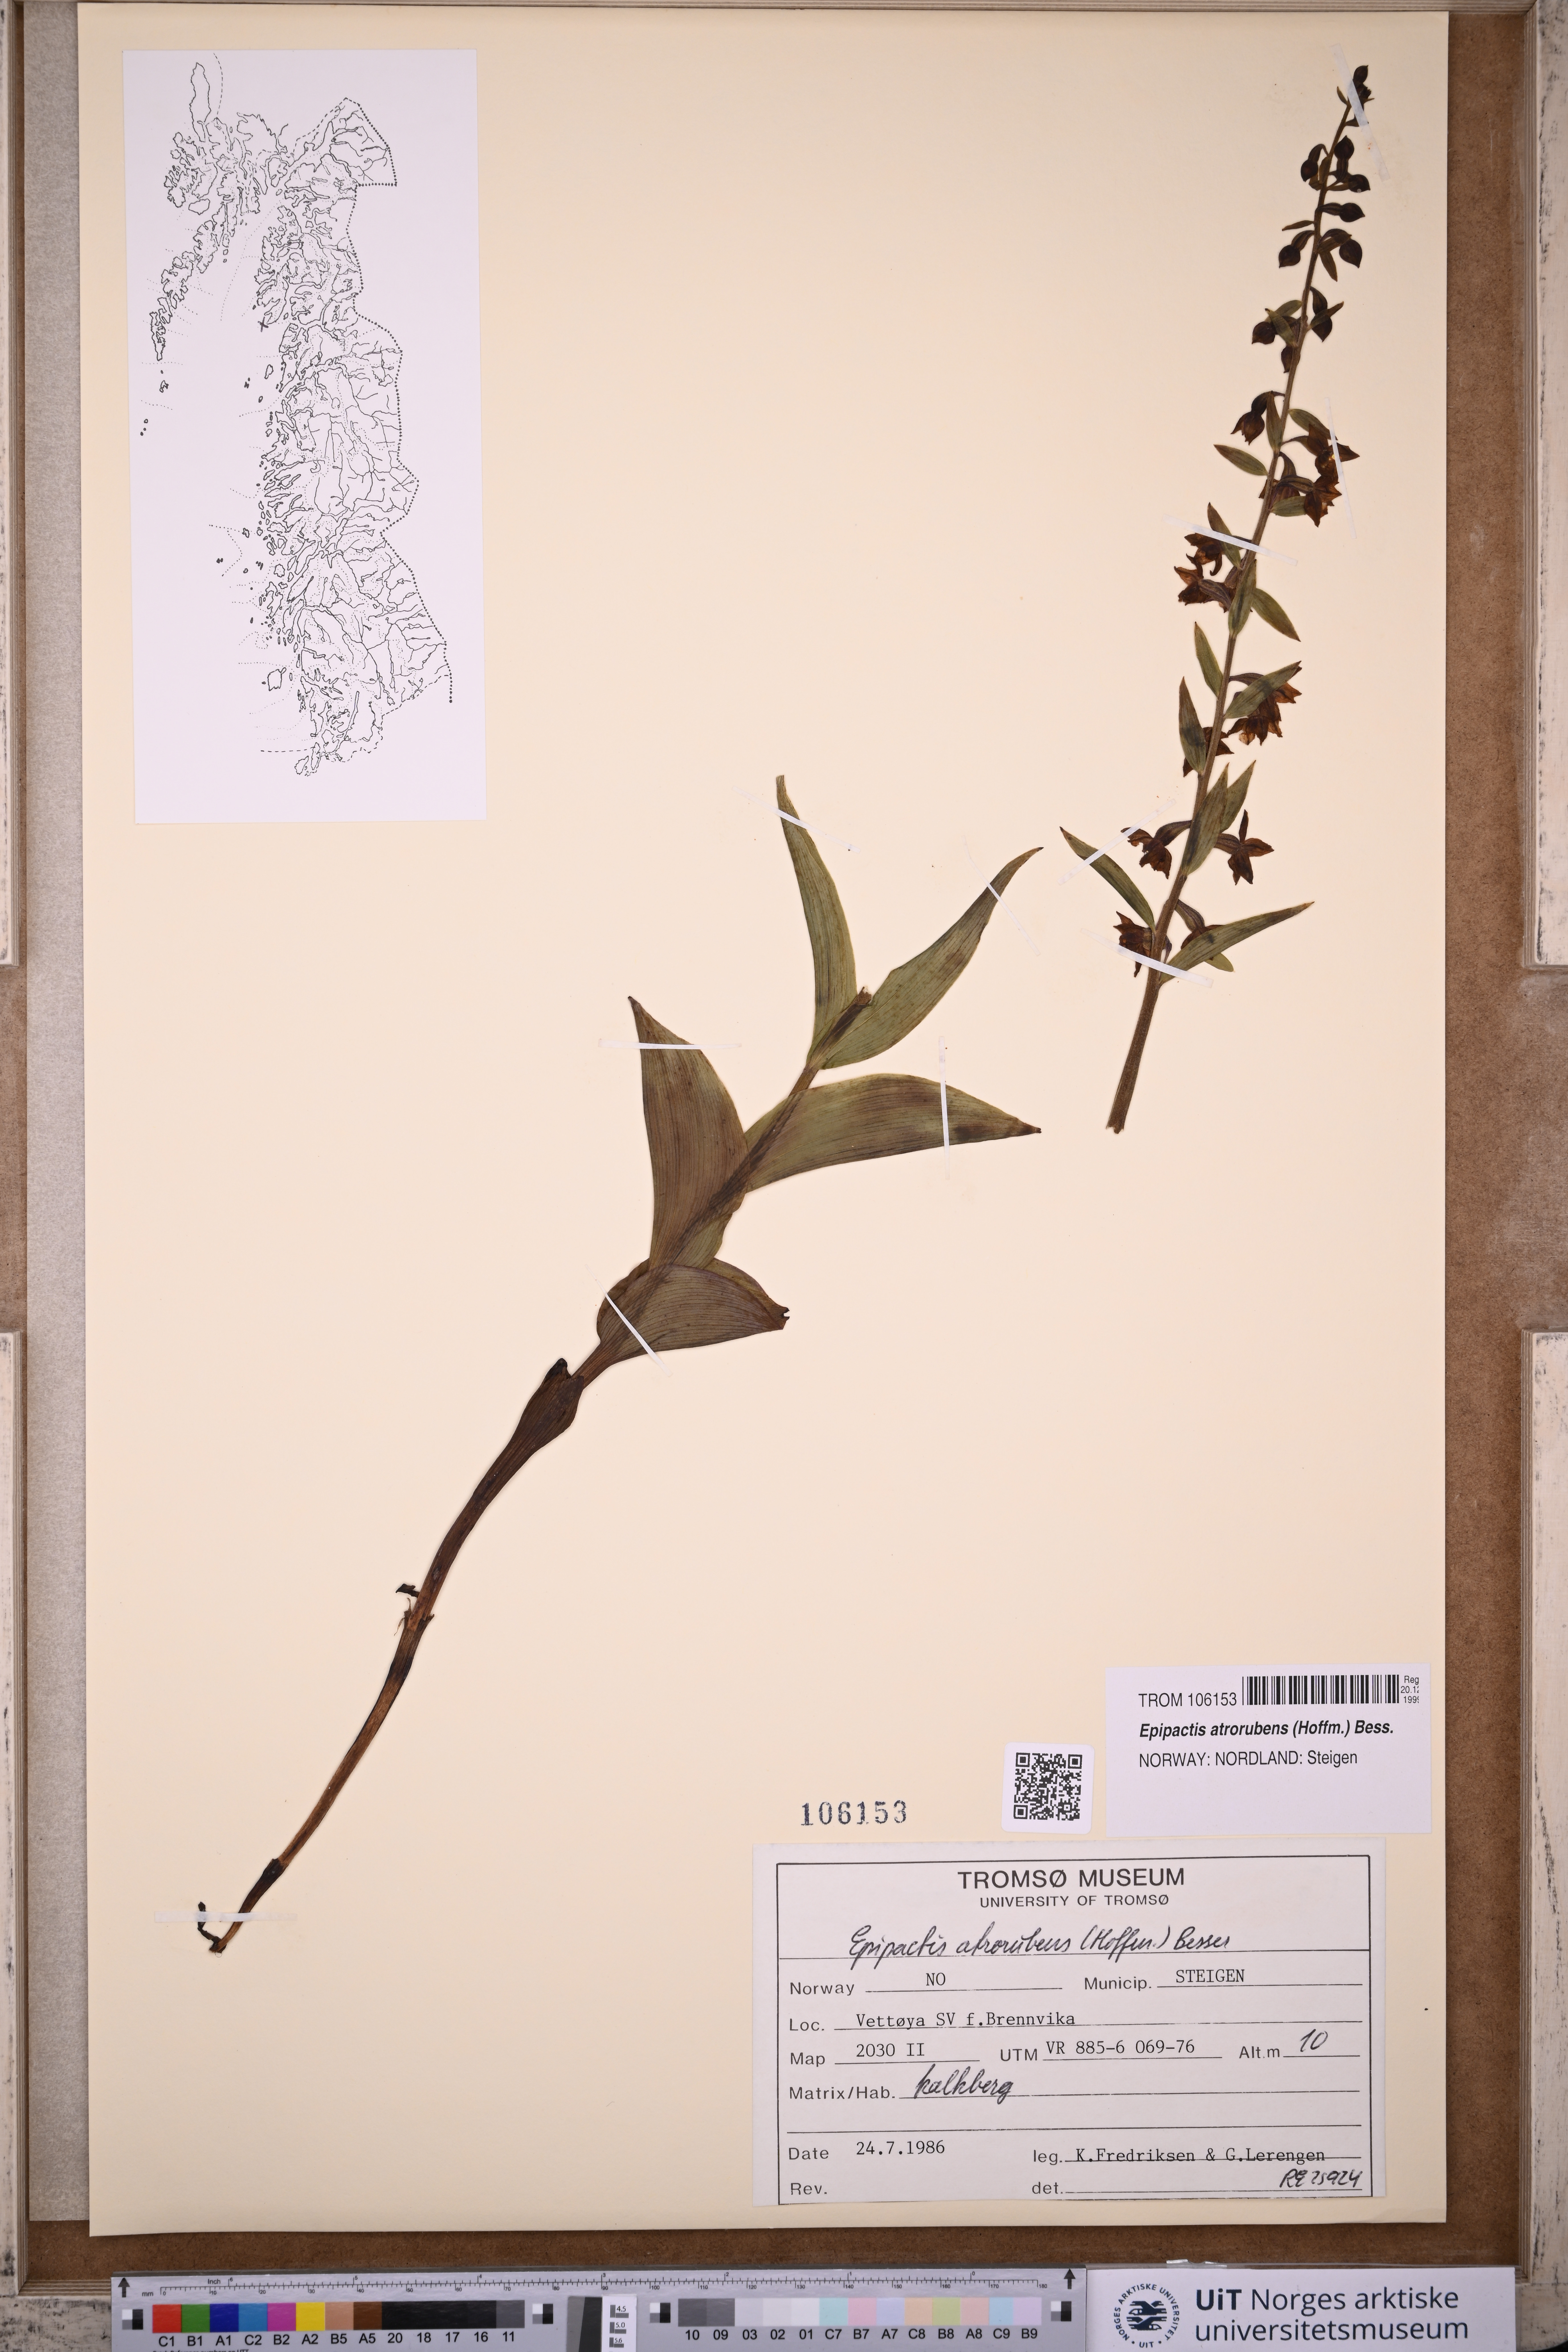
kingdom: Plantae
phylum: Tracheophyta
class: Liliopsida
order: Asparagales
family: Orchidaceae
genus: Epipactis
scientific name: Epipactis atrorubens
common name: Dark-red helleborine
